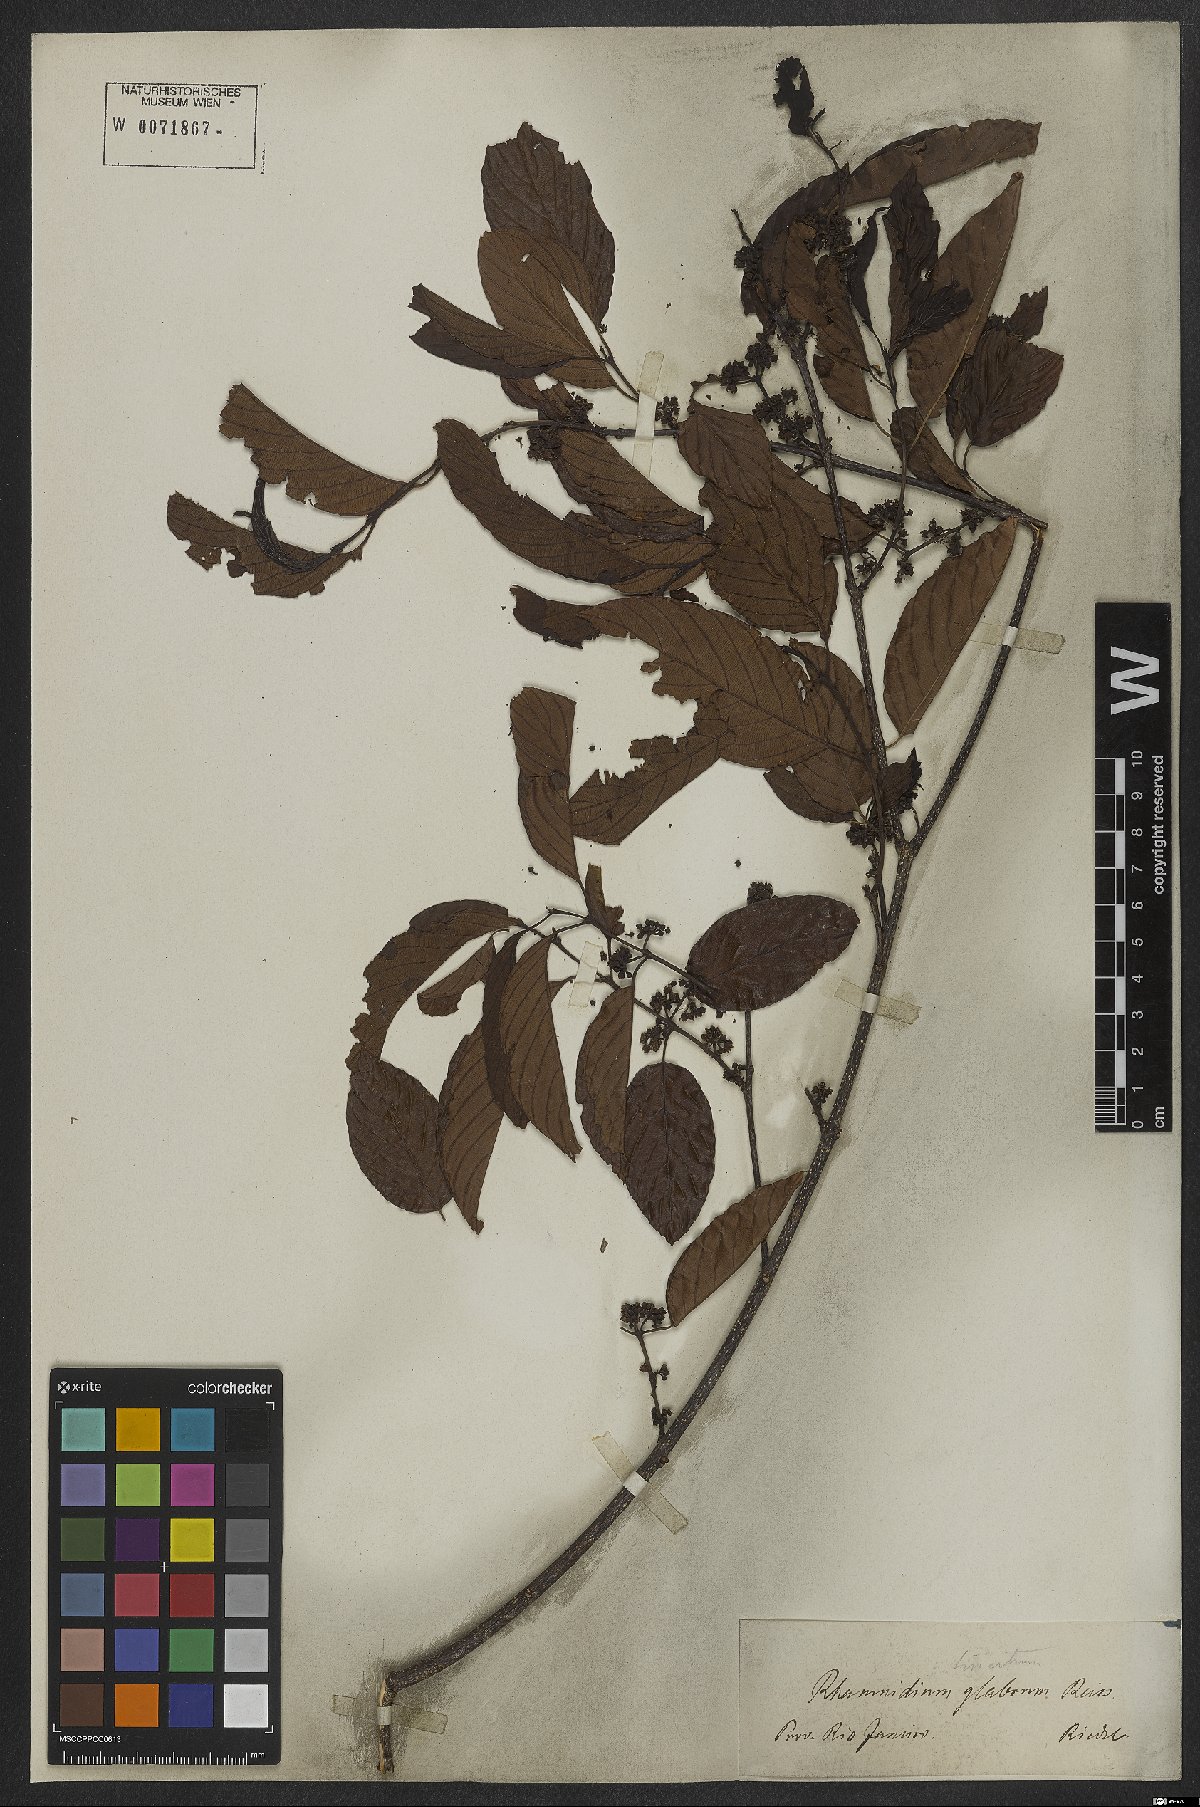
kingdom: Plantae
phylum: Tracheophyta
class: Magnoliopsida
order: Rosales
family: Rhamnaceae
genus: Rhamnidium
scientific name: Rhamnidium glabrum
